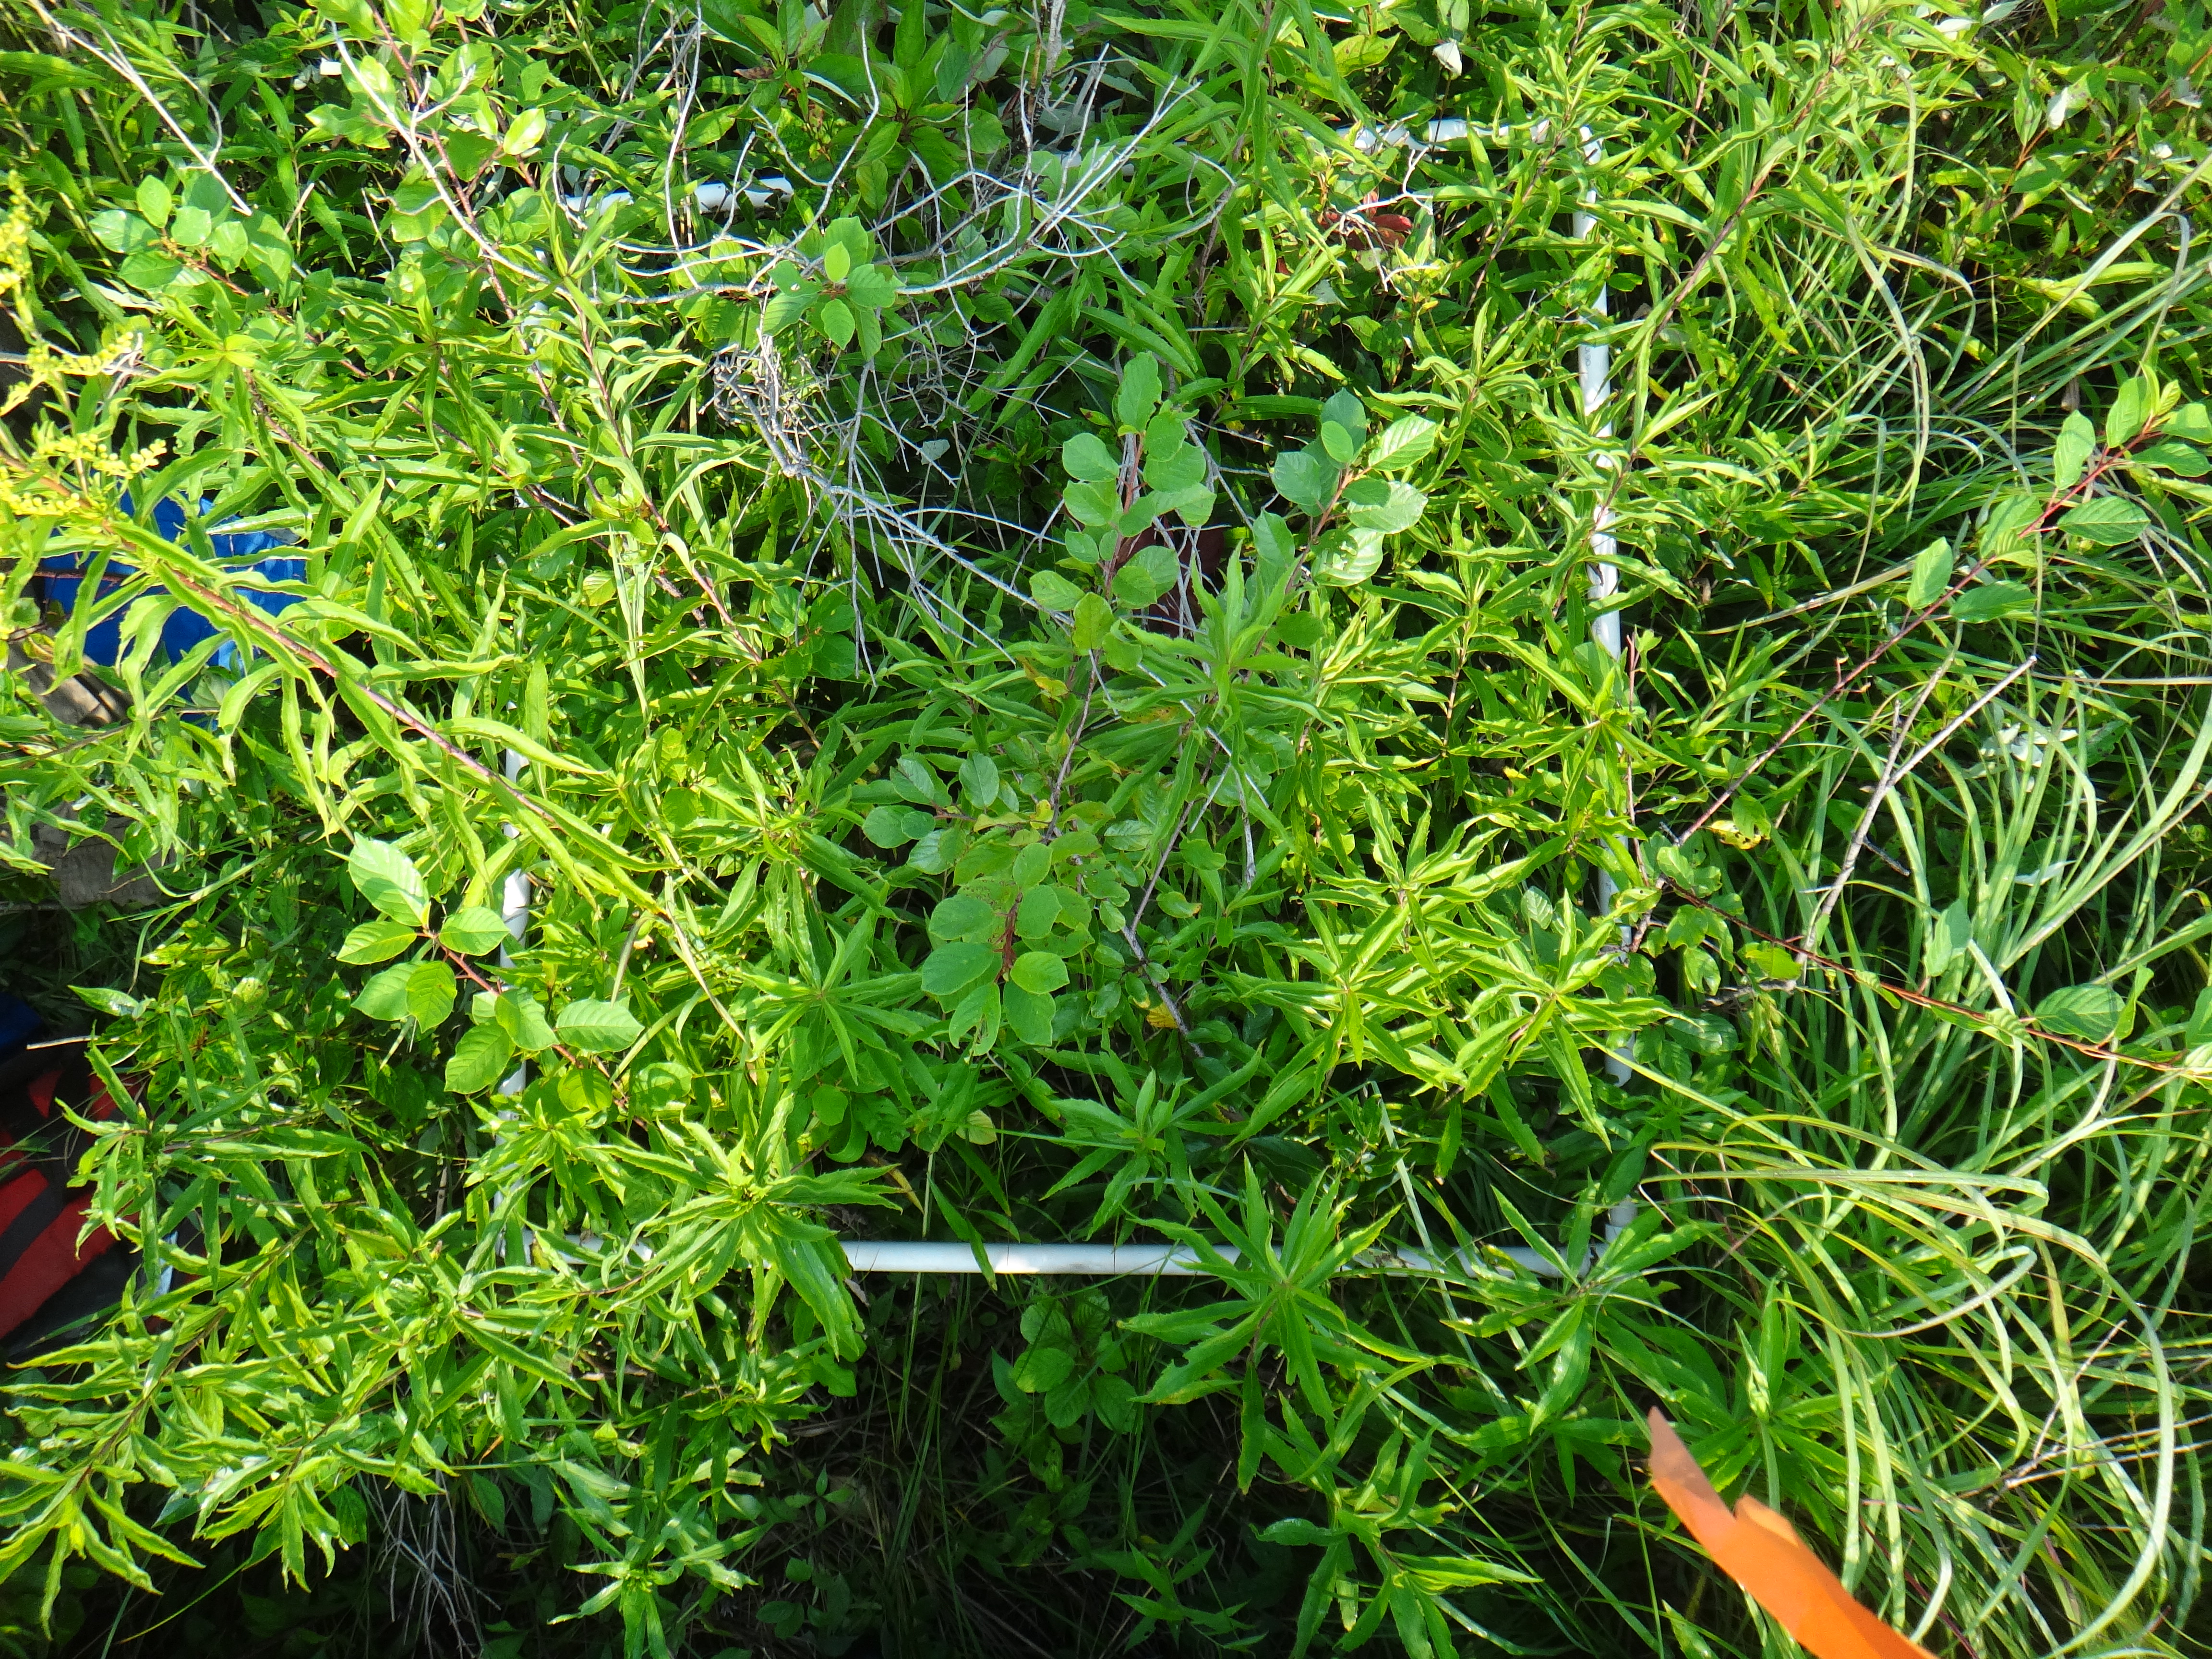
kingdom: Plantae
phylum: Tracheophyta
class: Magnoliopsida
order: Asterales
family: Asteraceae
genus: Cirsium
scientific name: Cirsium muticum
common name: Dunce-nettle
